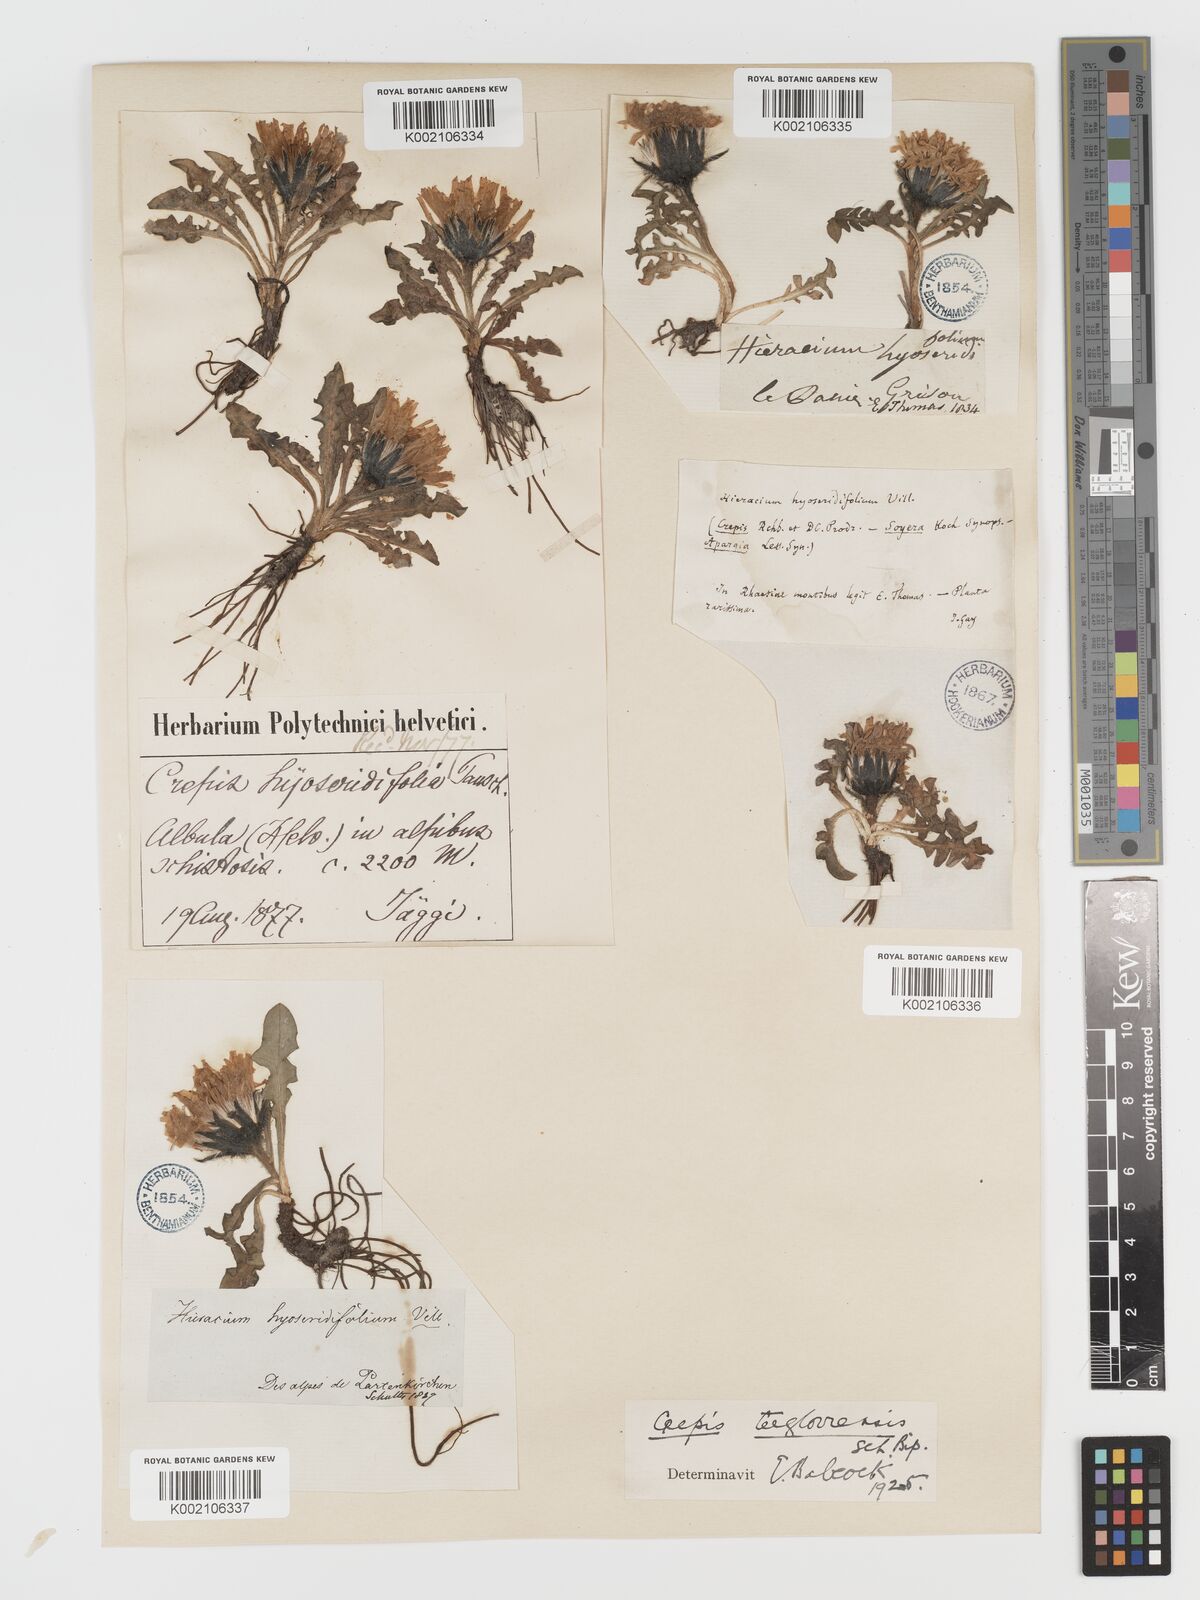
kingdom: Plantae
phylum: Tracheophyta
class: Magnoliopsida
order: Asterales
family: Asteraceae
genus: Crepis
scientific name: Crepis
